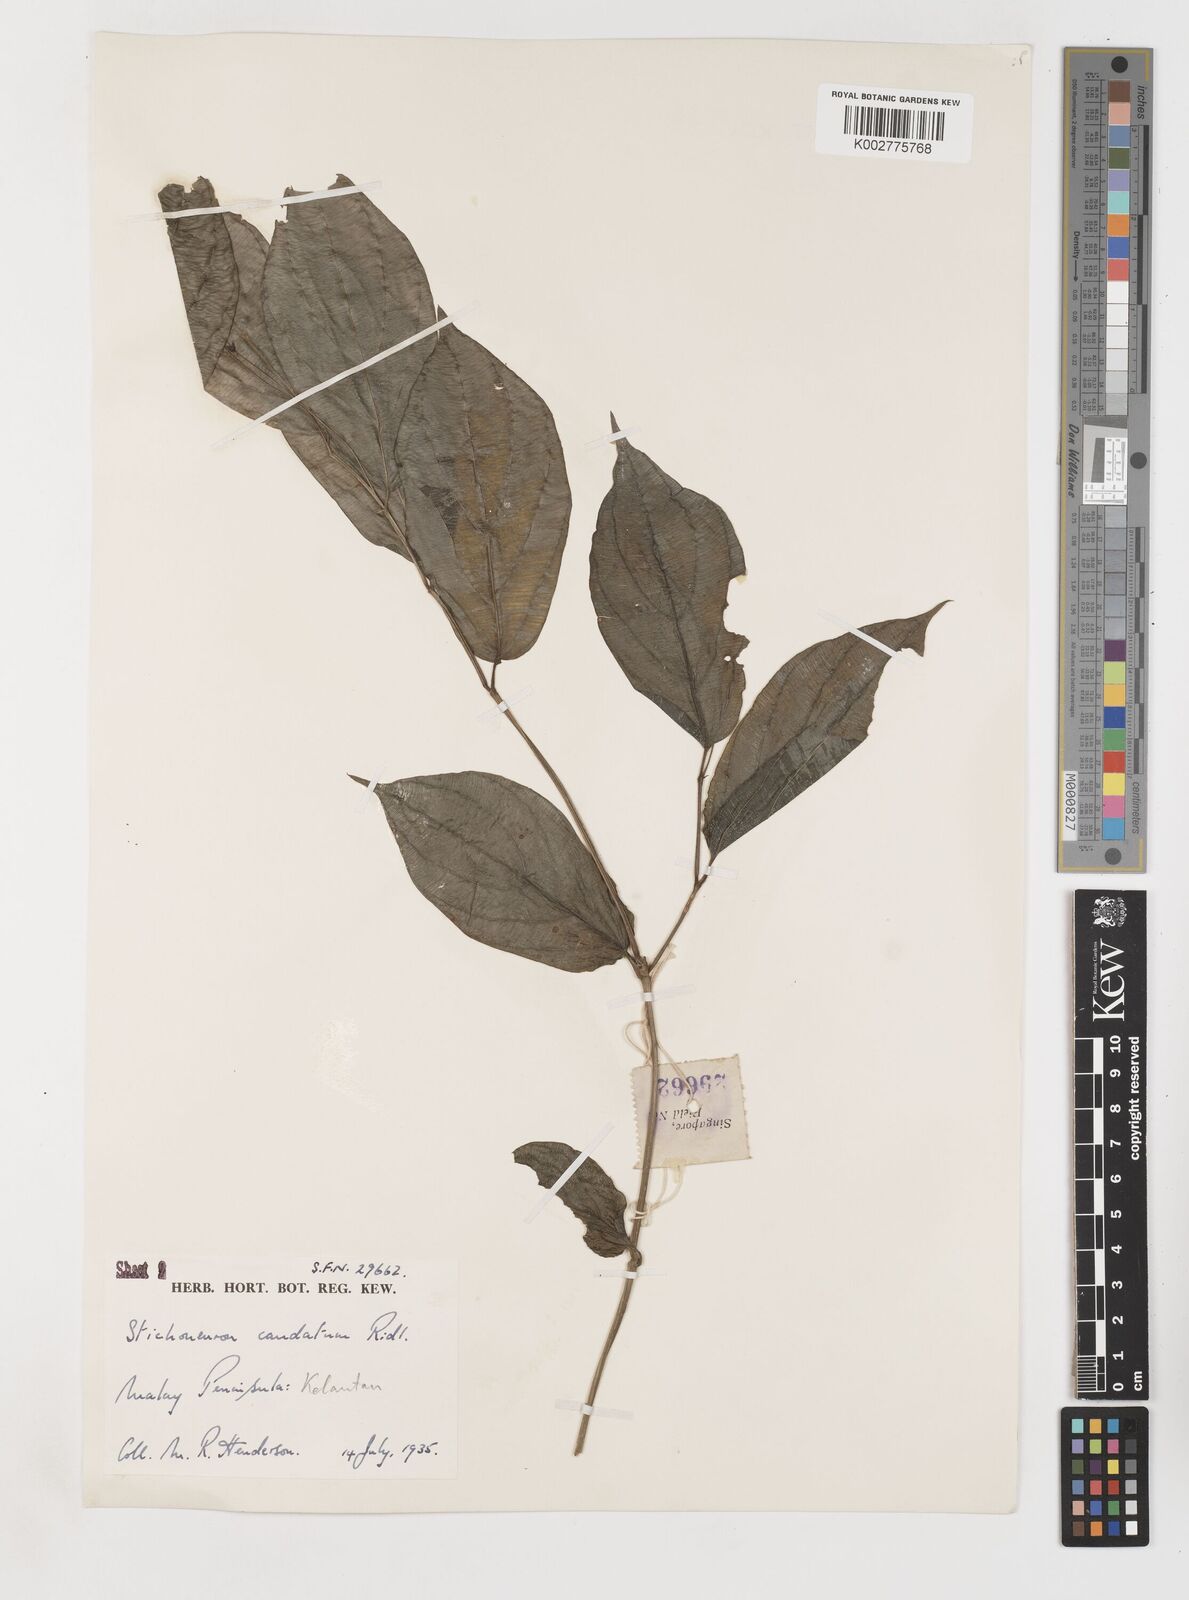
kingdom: Plantae
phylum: Tracheophyta
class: Liliopsida
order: Pandanales
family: Stemonaceae
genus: Stichoneuron
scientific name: Stichoneuron caudatum
